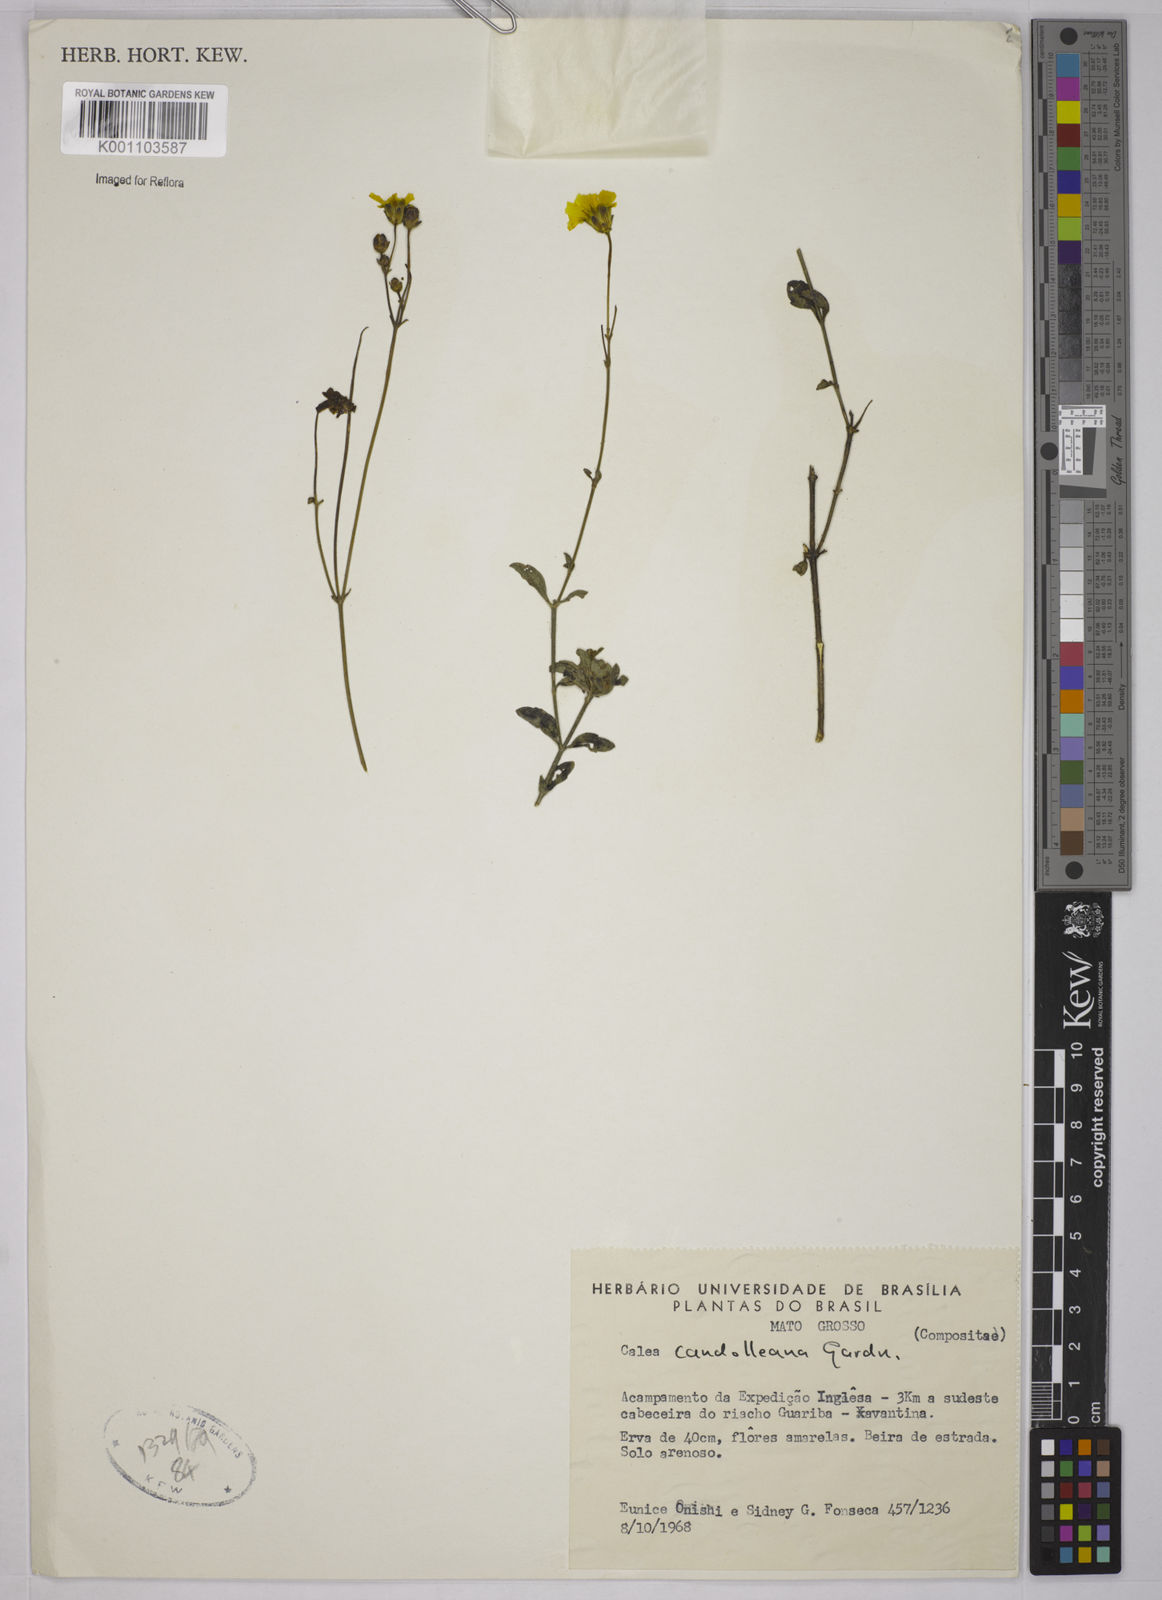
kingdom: Plantae
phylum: Tracheophyta
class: Magnoliopsida
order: Asterales
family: Asteraceae
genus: Calea
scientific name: Calea candolleana
